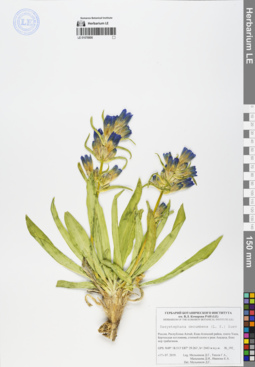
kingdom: Plantae
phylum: Tracheophyta
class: Magnoliopsida
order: Gentianales
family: Gentianaceae
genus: Gentiana
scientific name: Gentiana decumbens
